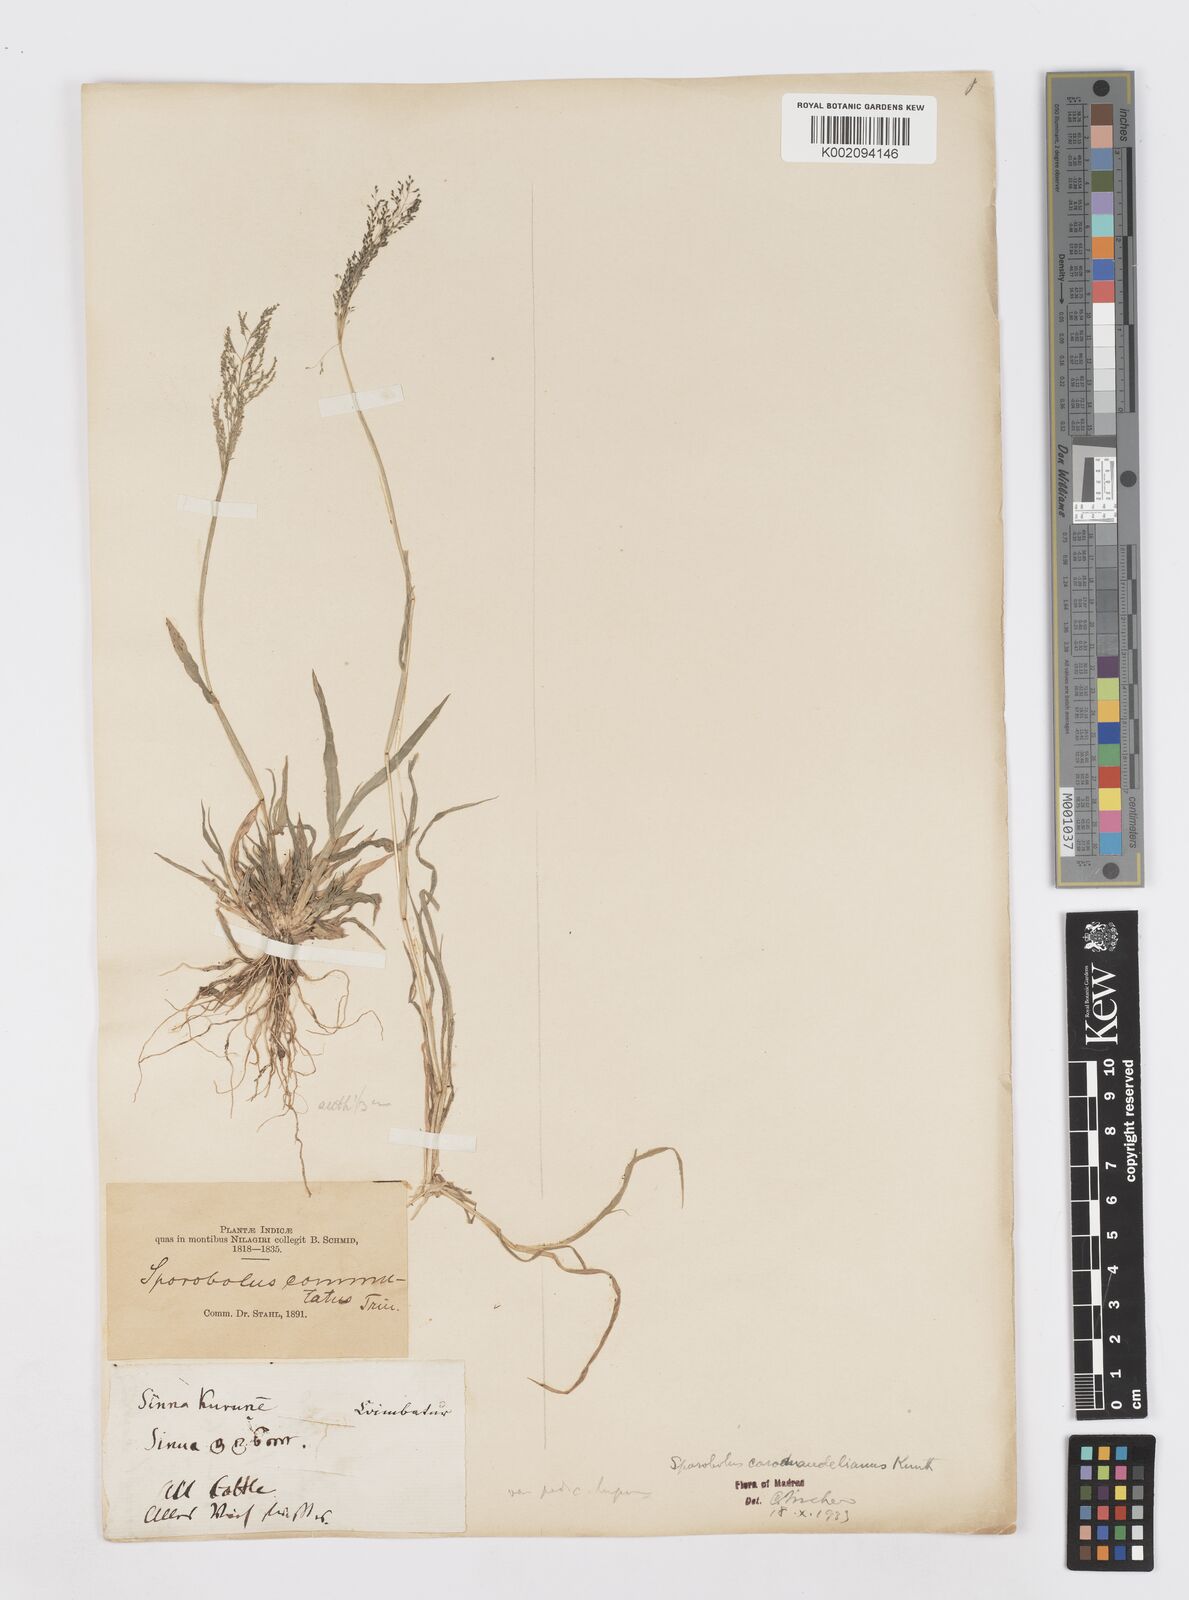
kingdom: Plantae
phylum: Tracheophyta
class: Liliopsida
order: Poales
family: Poaceae
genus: Sporobolus
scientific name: Sporobolus coromandelianus
